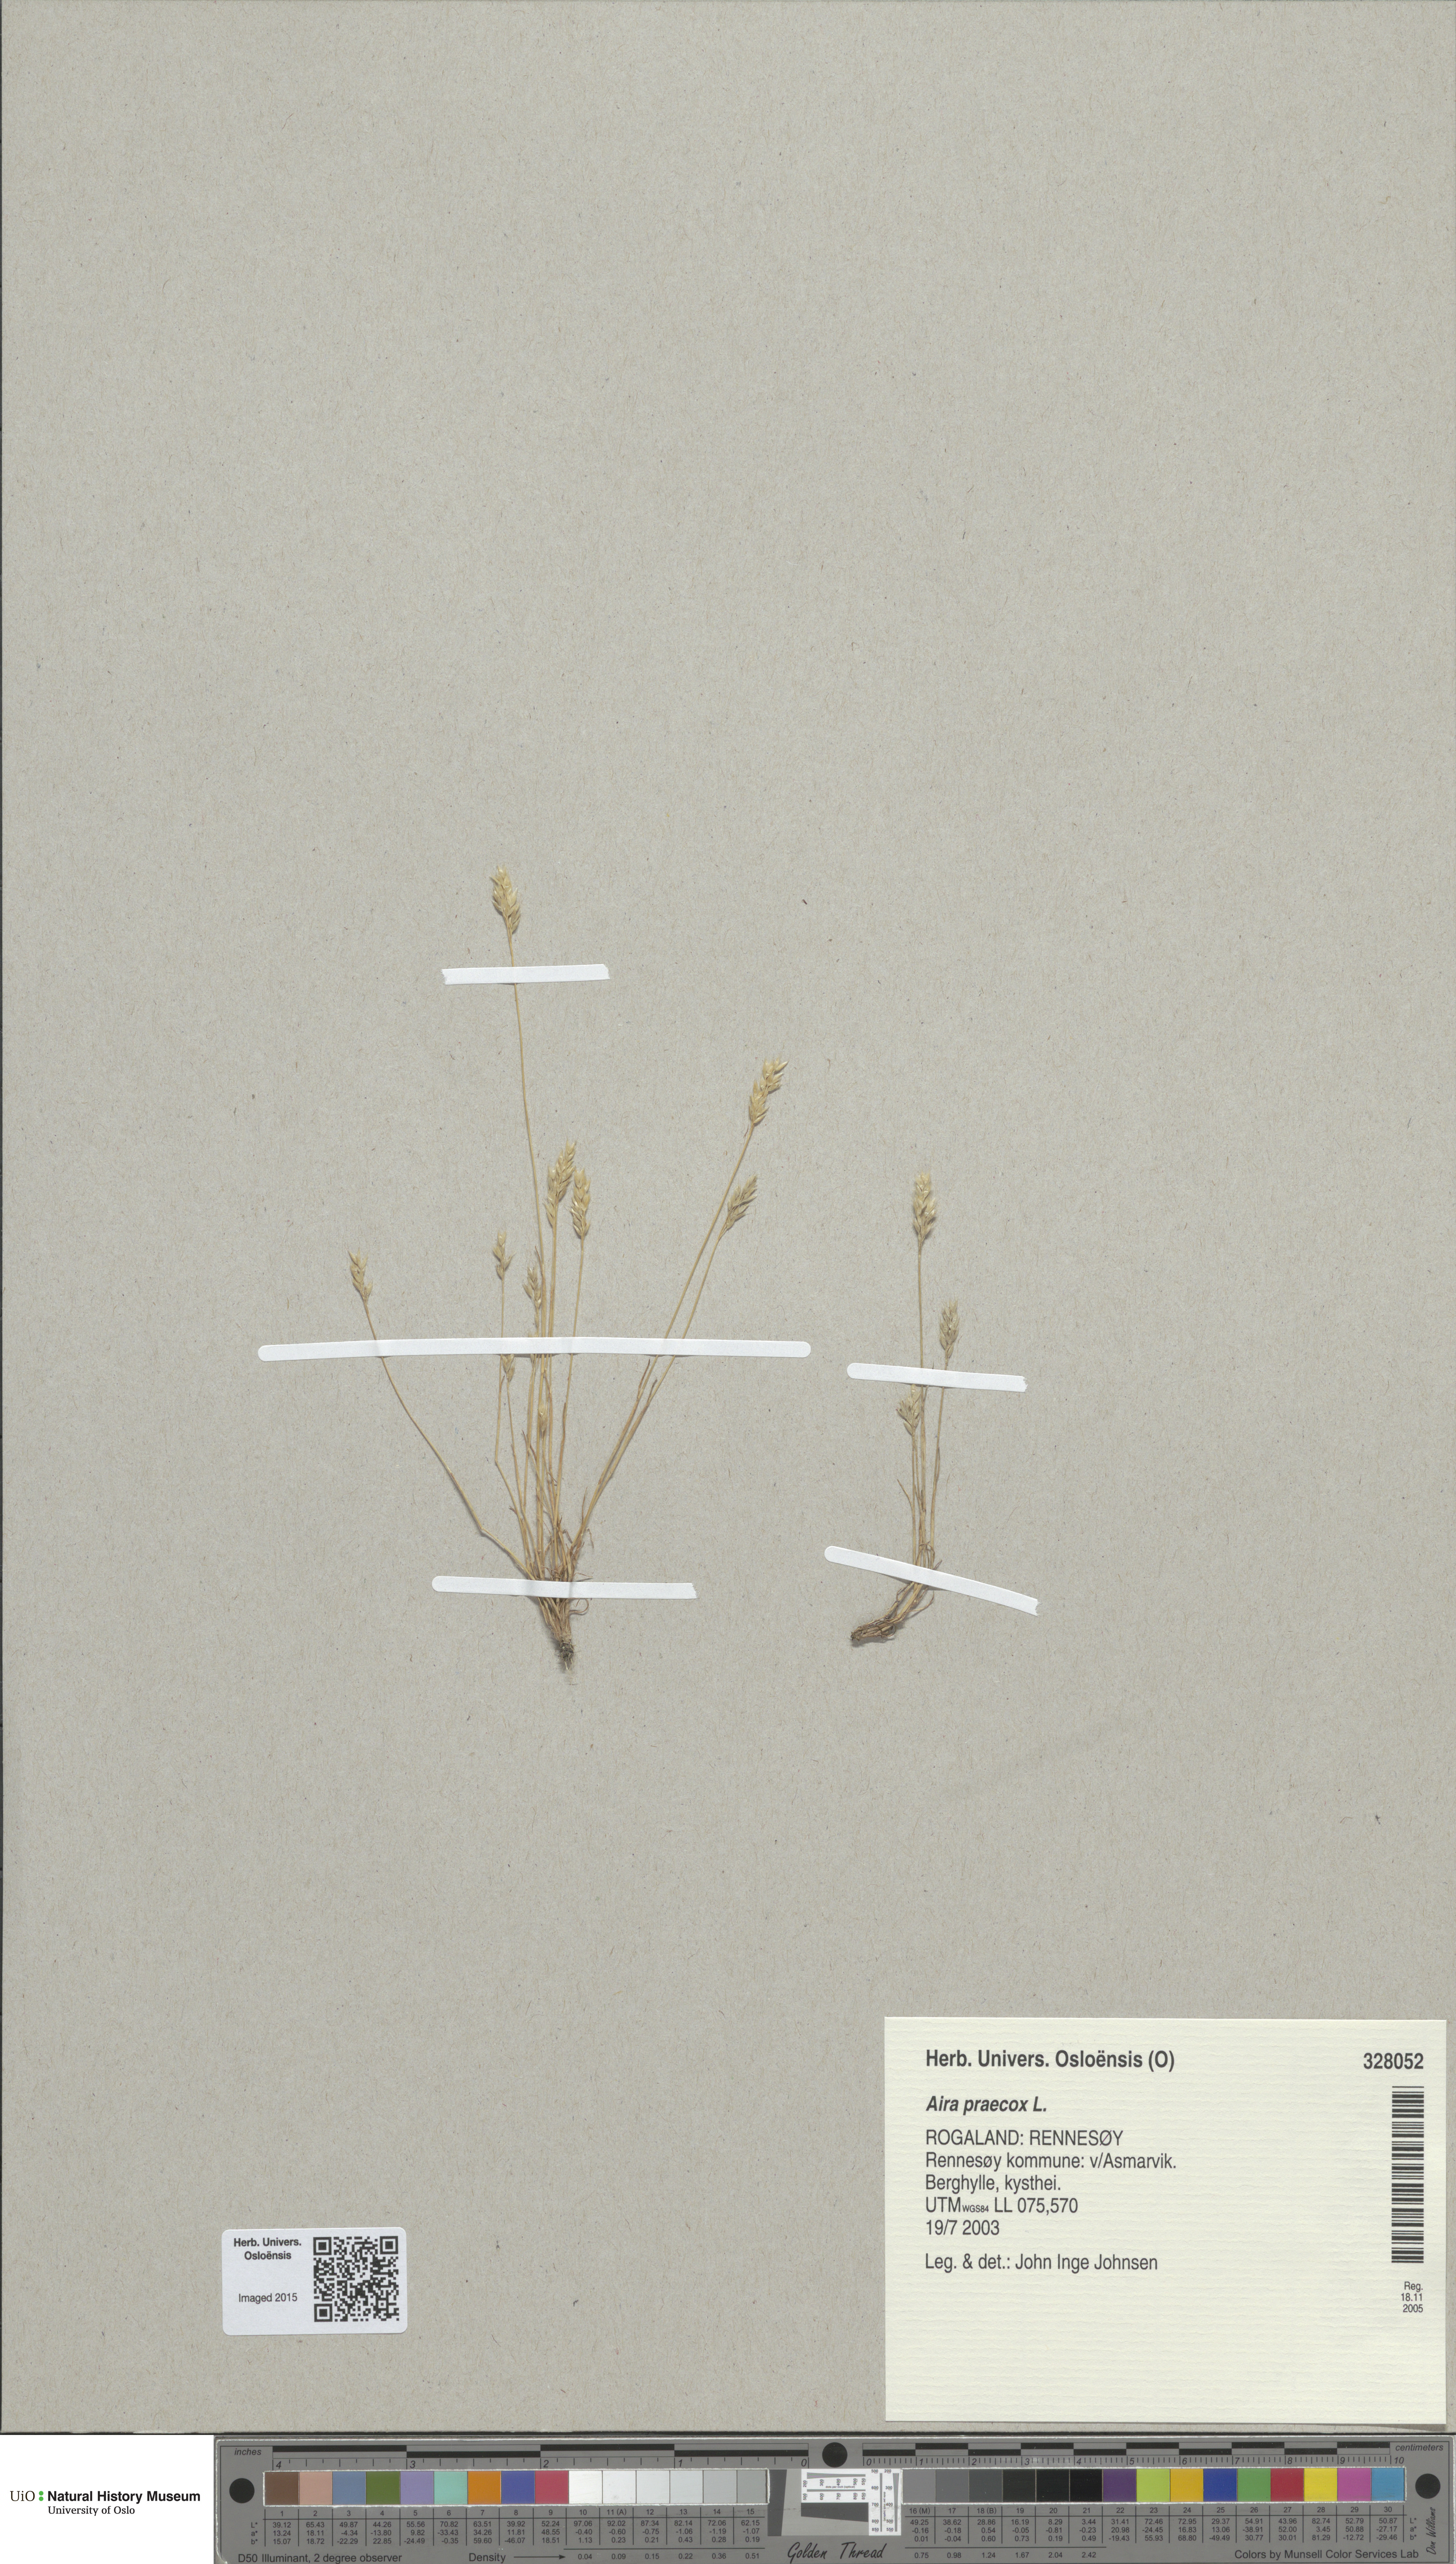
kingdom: Plantae
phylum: Tracheophyta
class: Liliopsida
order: Poales
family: Poaceae
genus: Aira
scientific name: Aira praecox
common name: Early hair-grass
